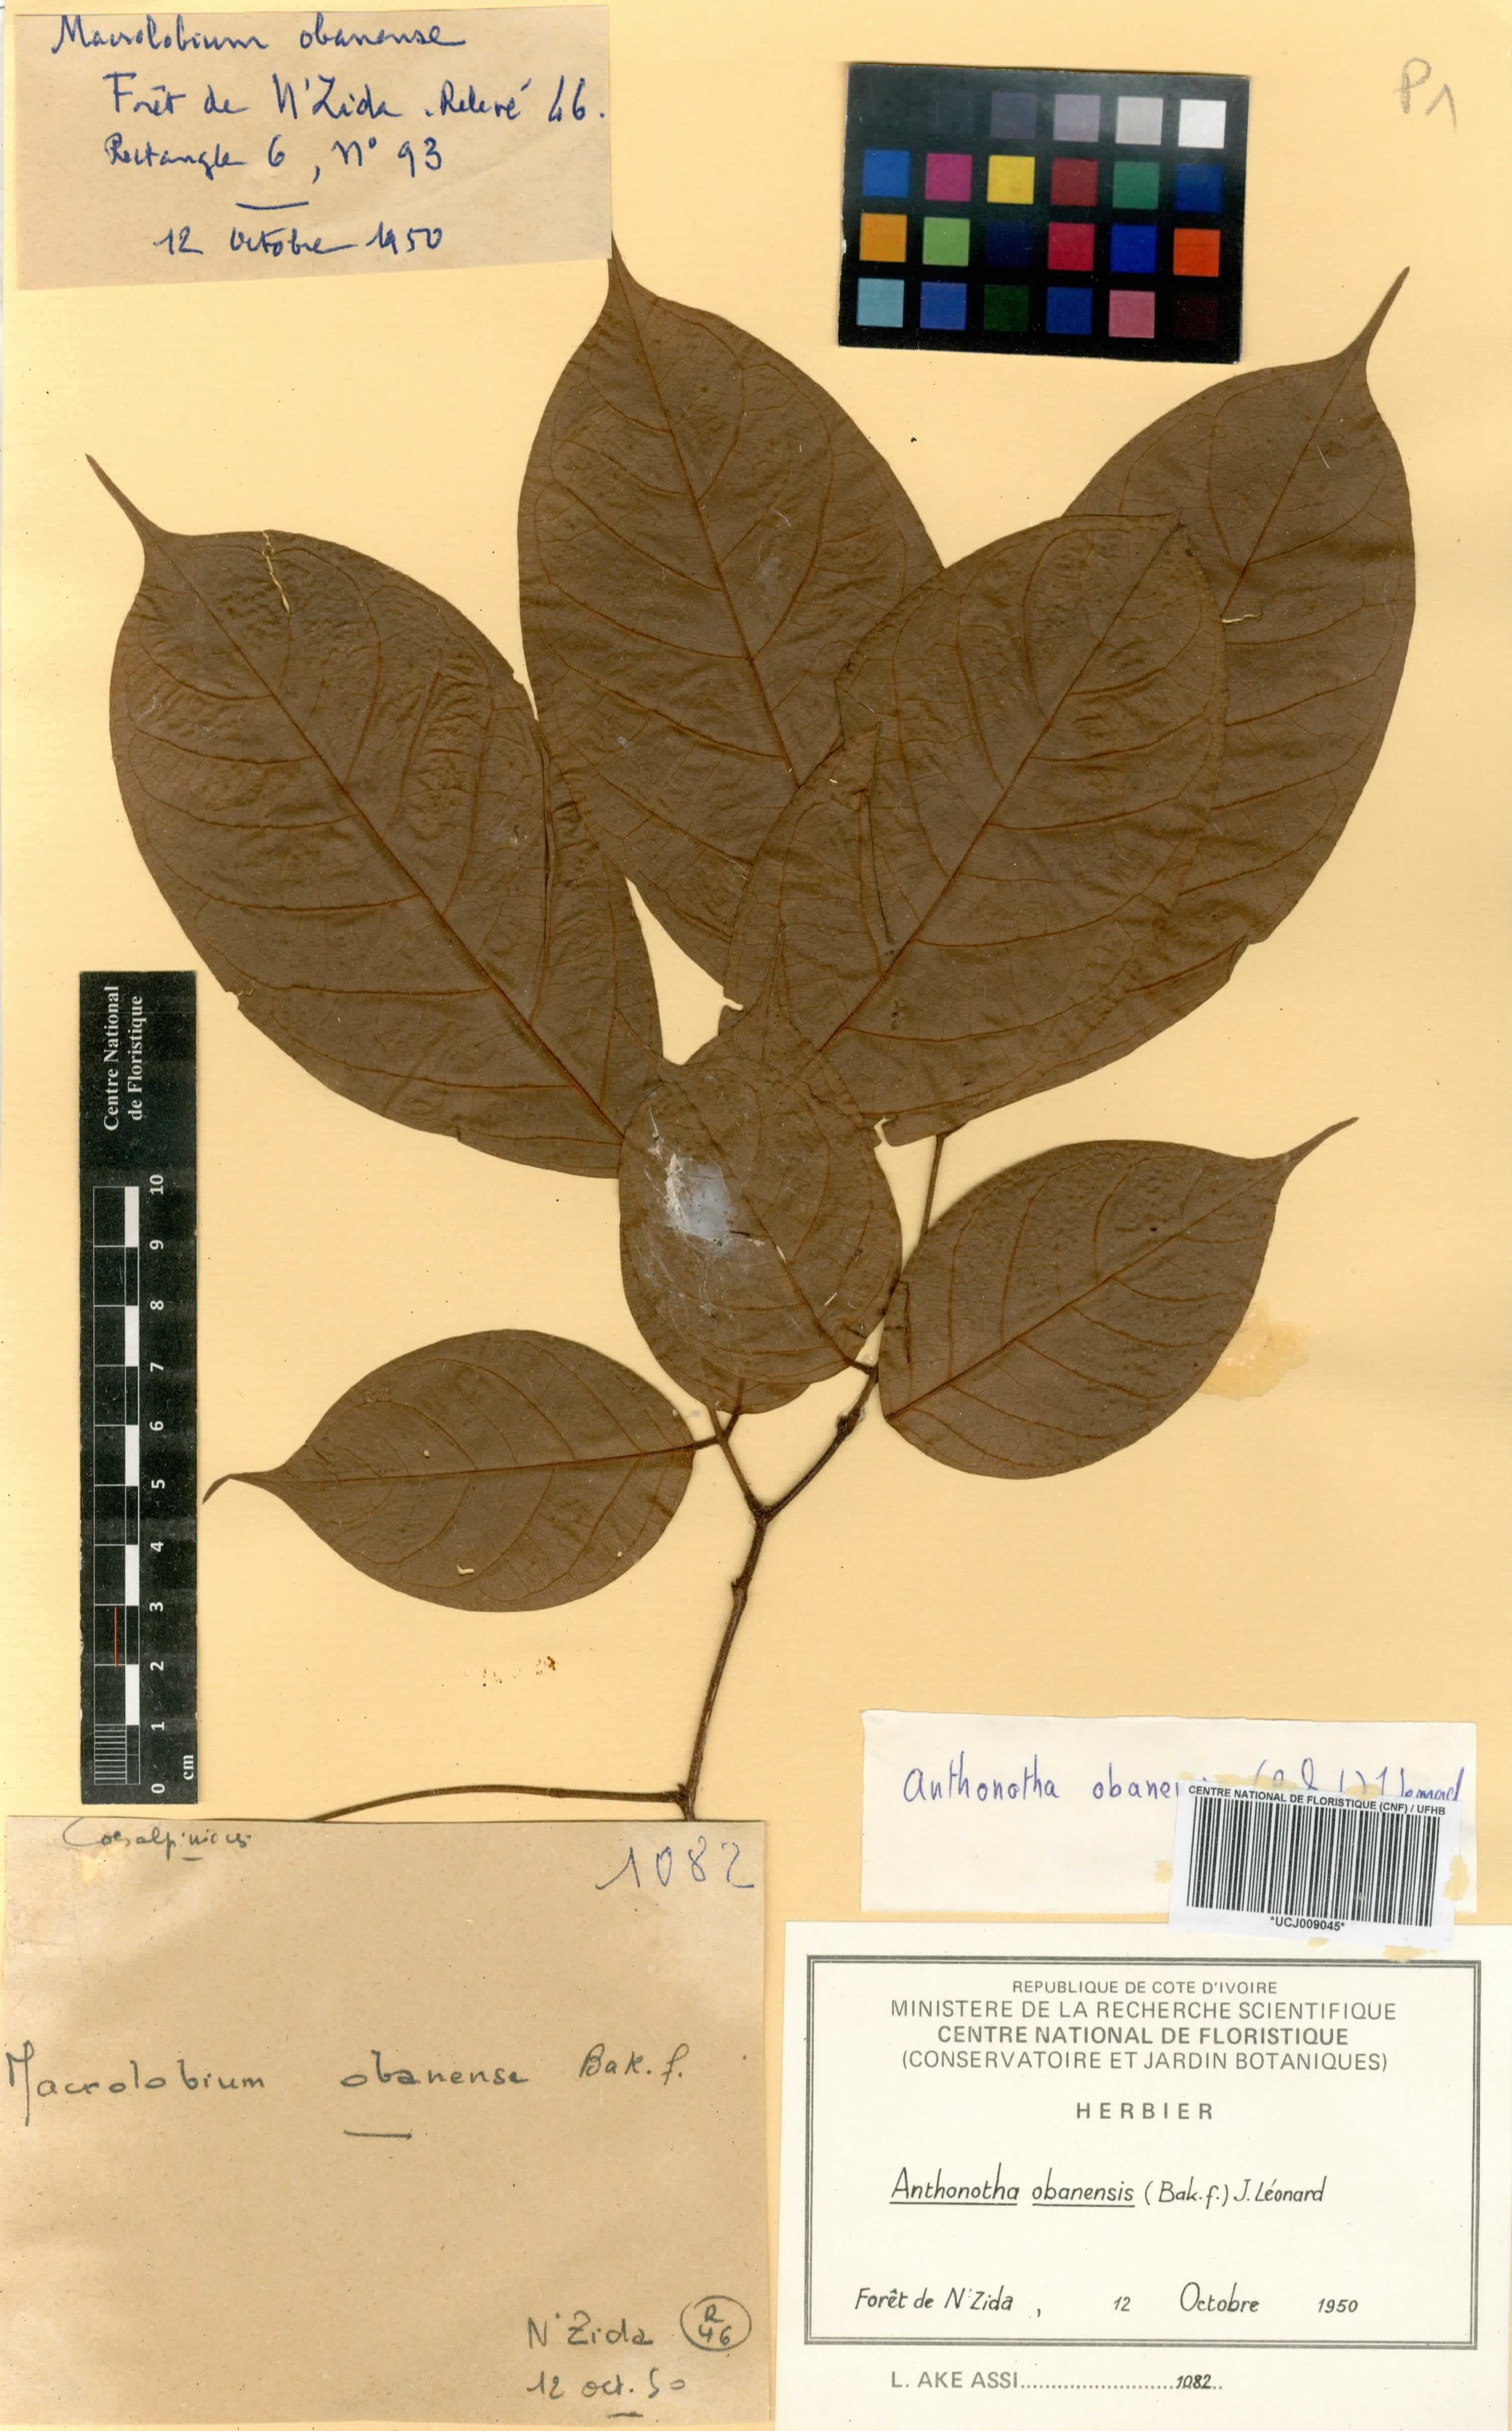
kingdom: Plantae
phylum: Tracheophyta
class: Magnoliopsida
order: Fabales
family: Fabaceae
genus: Englerodendron
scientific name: Englerodendron obanense
